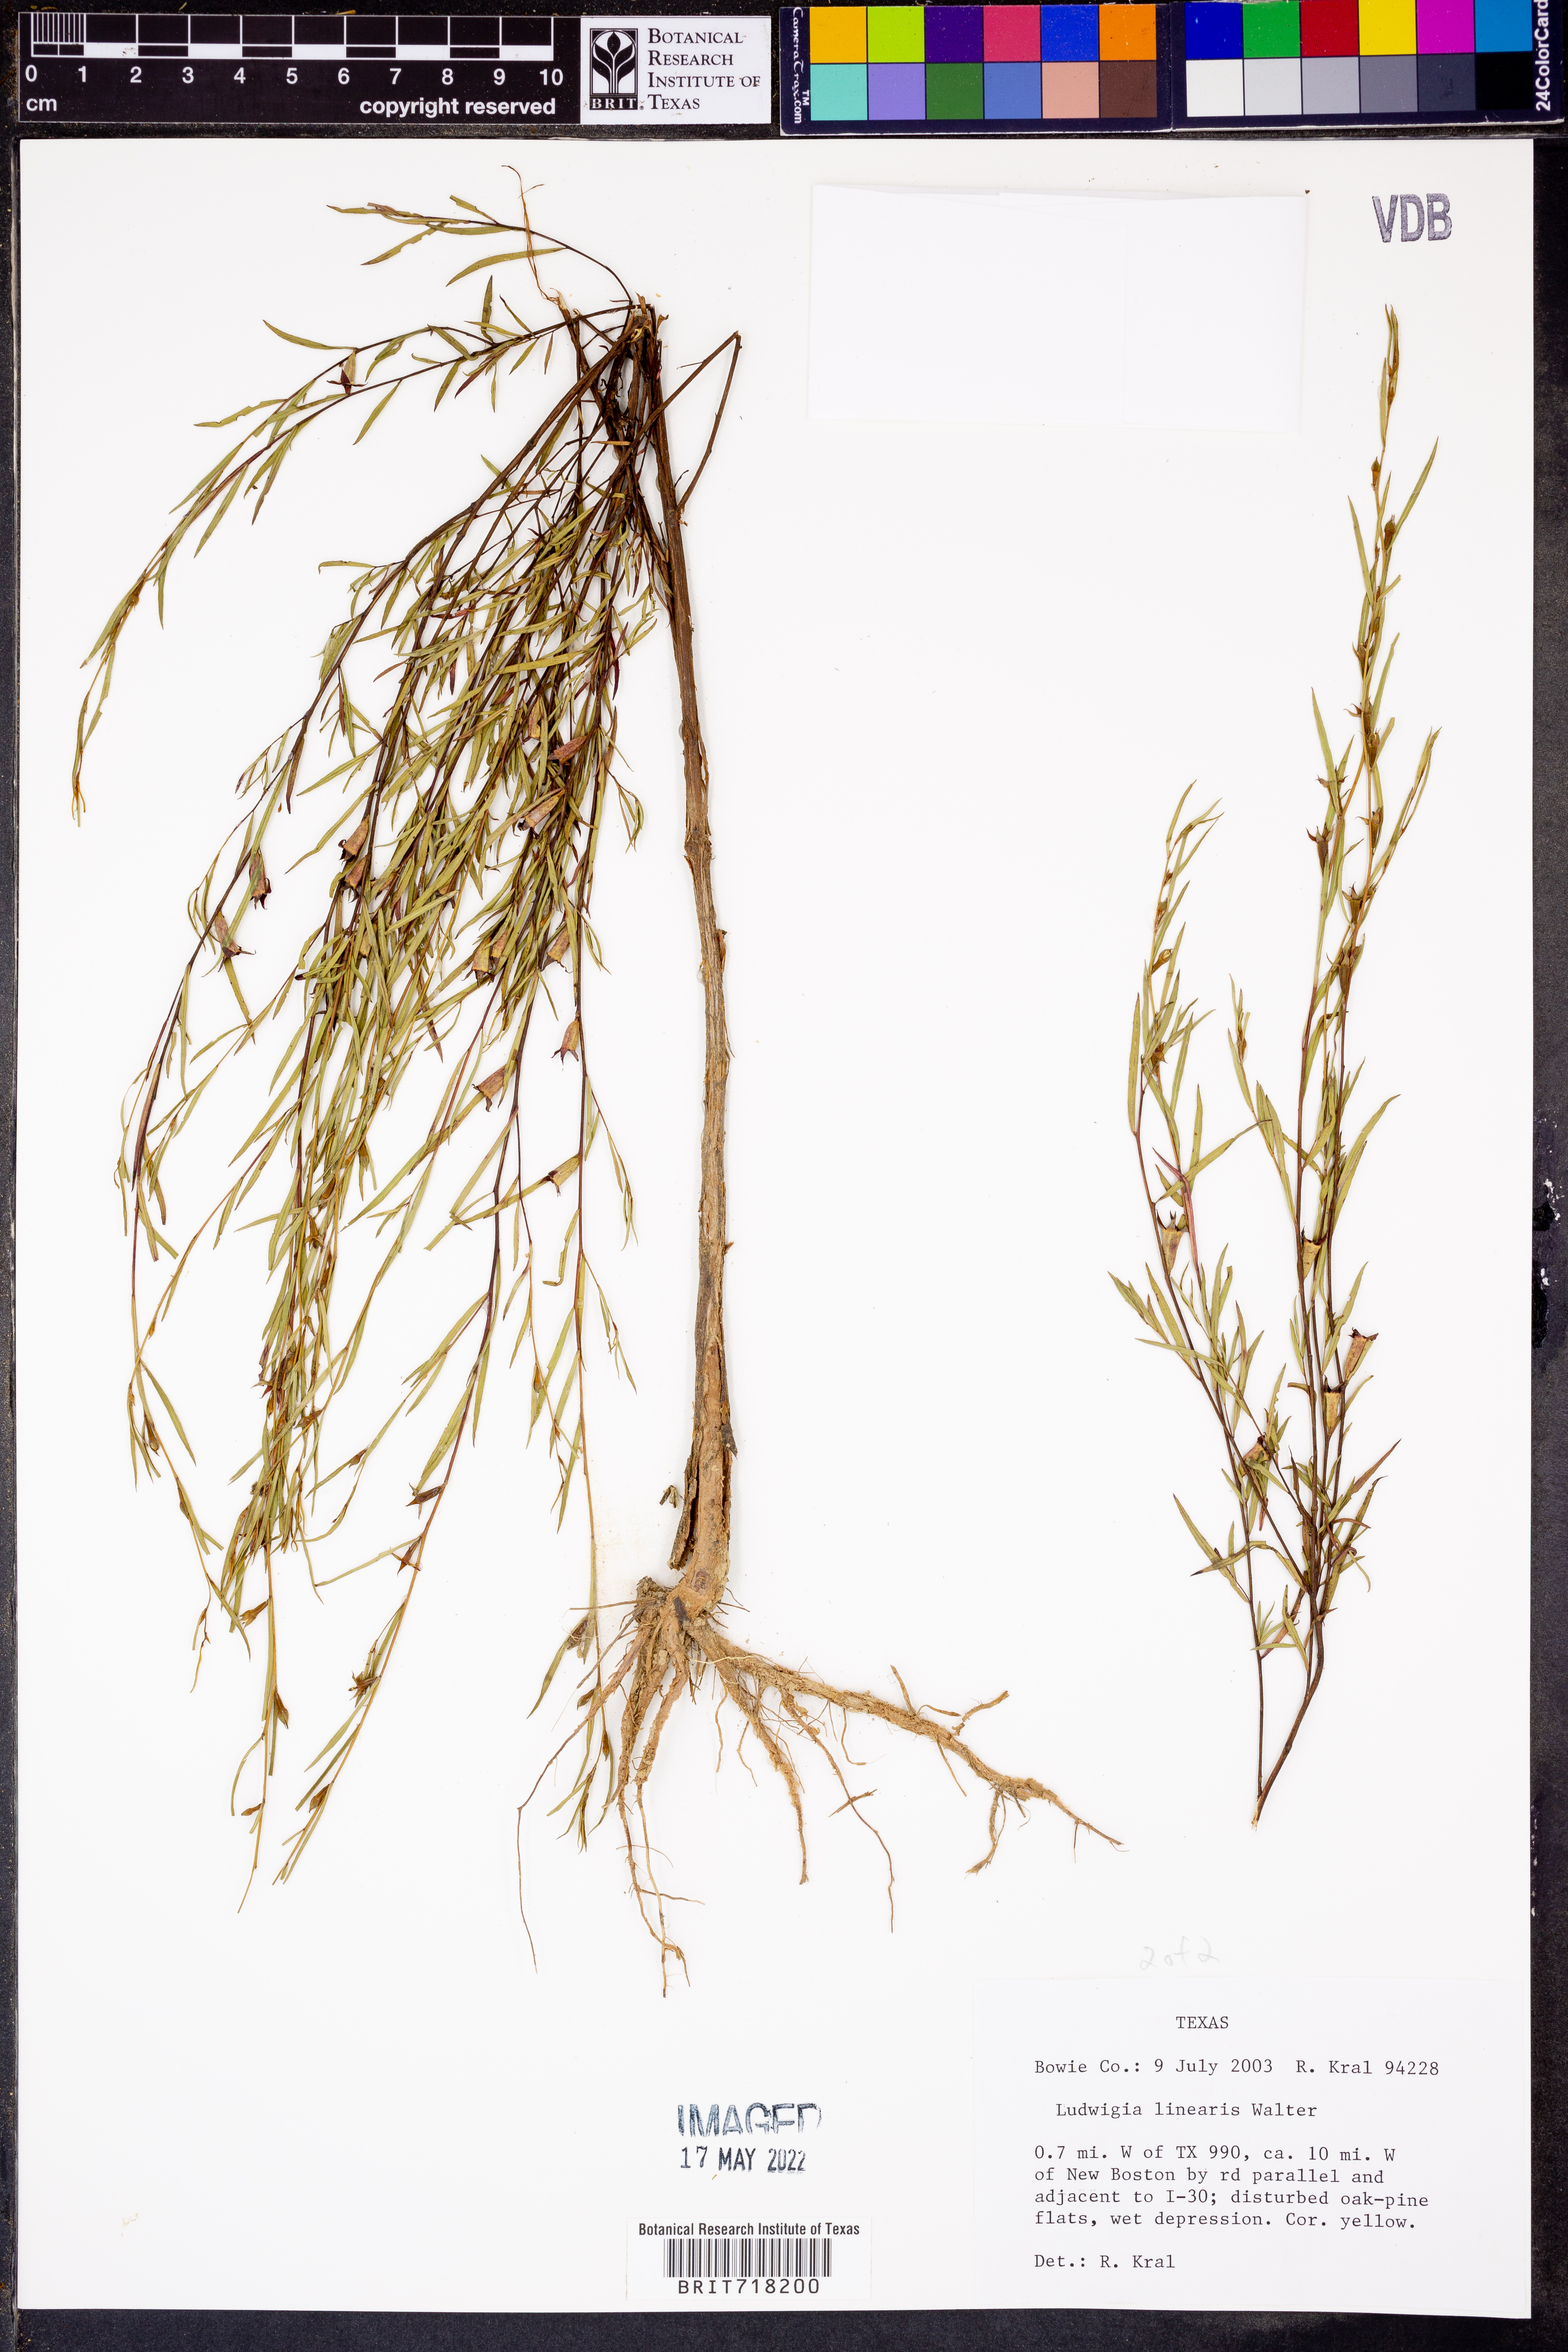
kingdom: Plantae
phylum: Tracheophyta
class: Magnoliopsida
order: Myrtales
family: Onagraceae
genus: Ludwigia
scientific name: Ludwigia linearis
